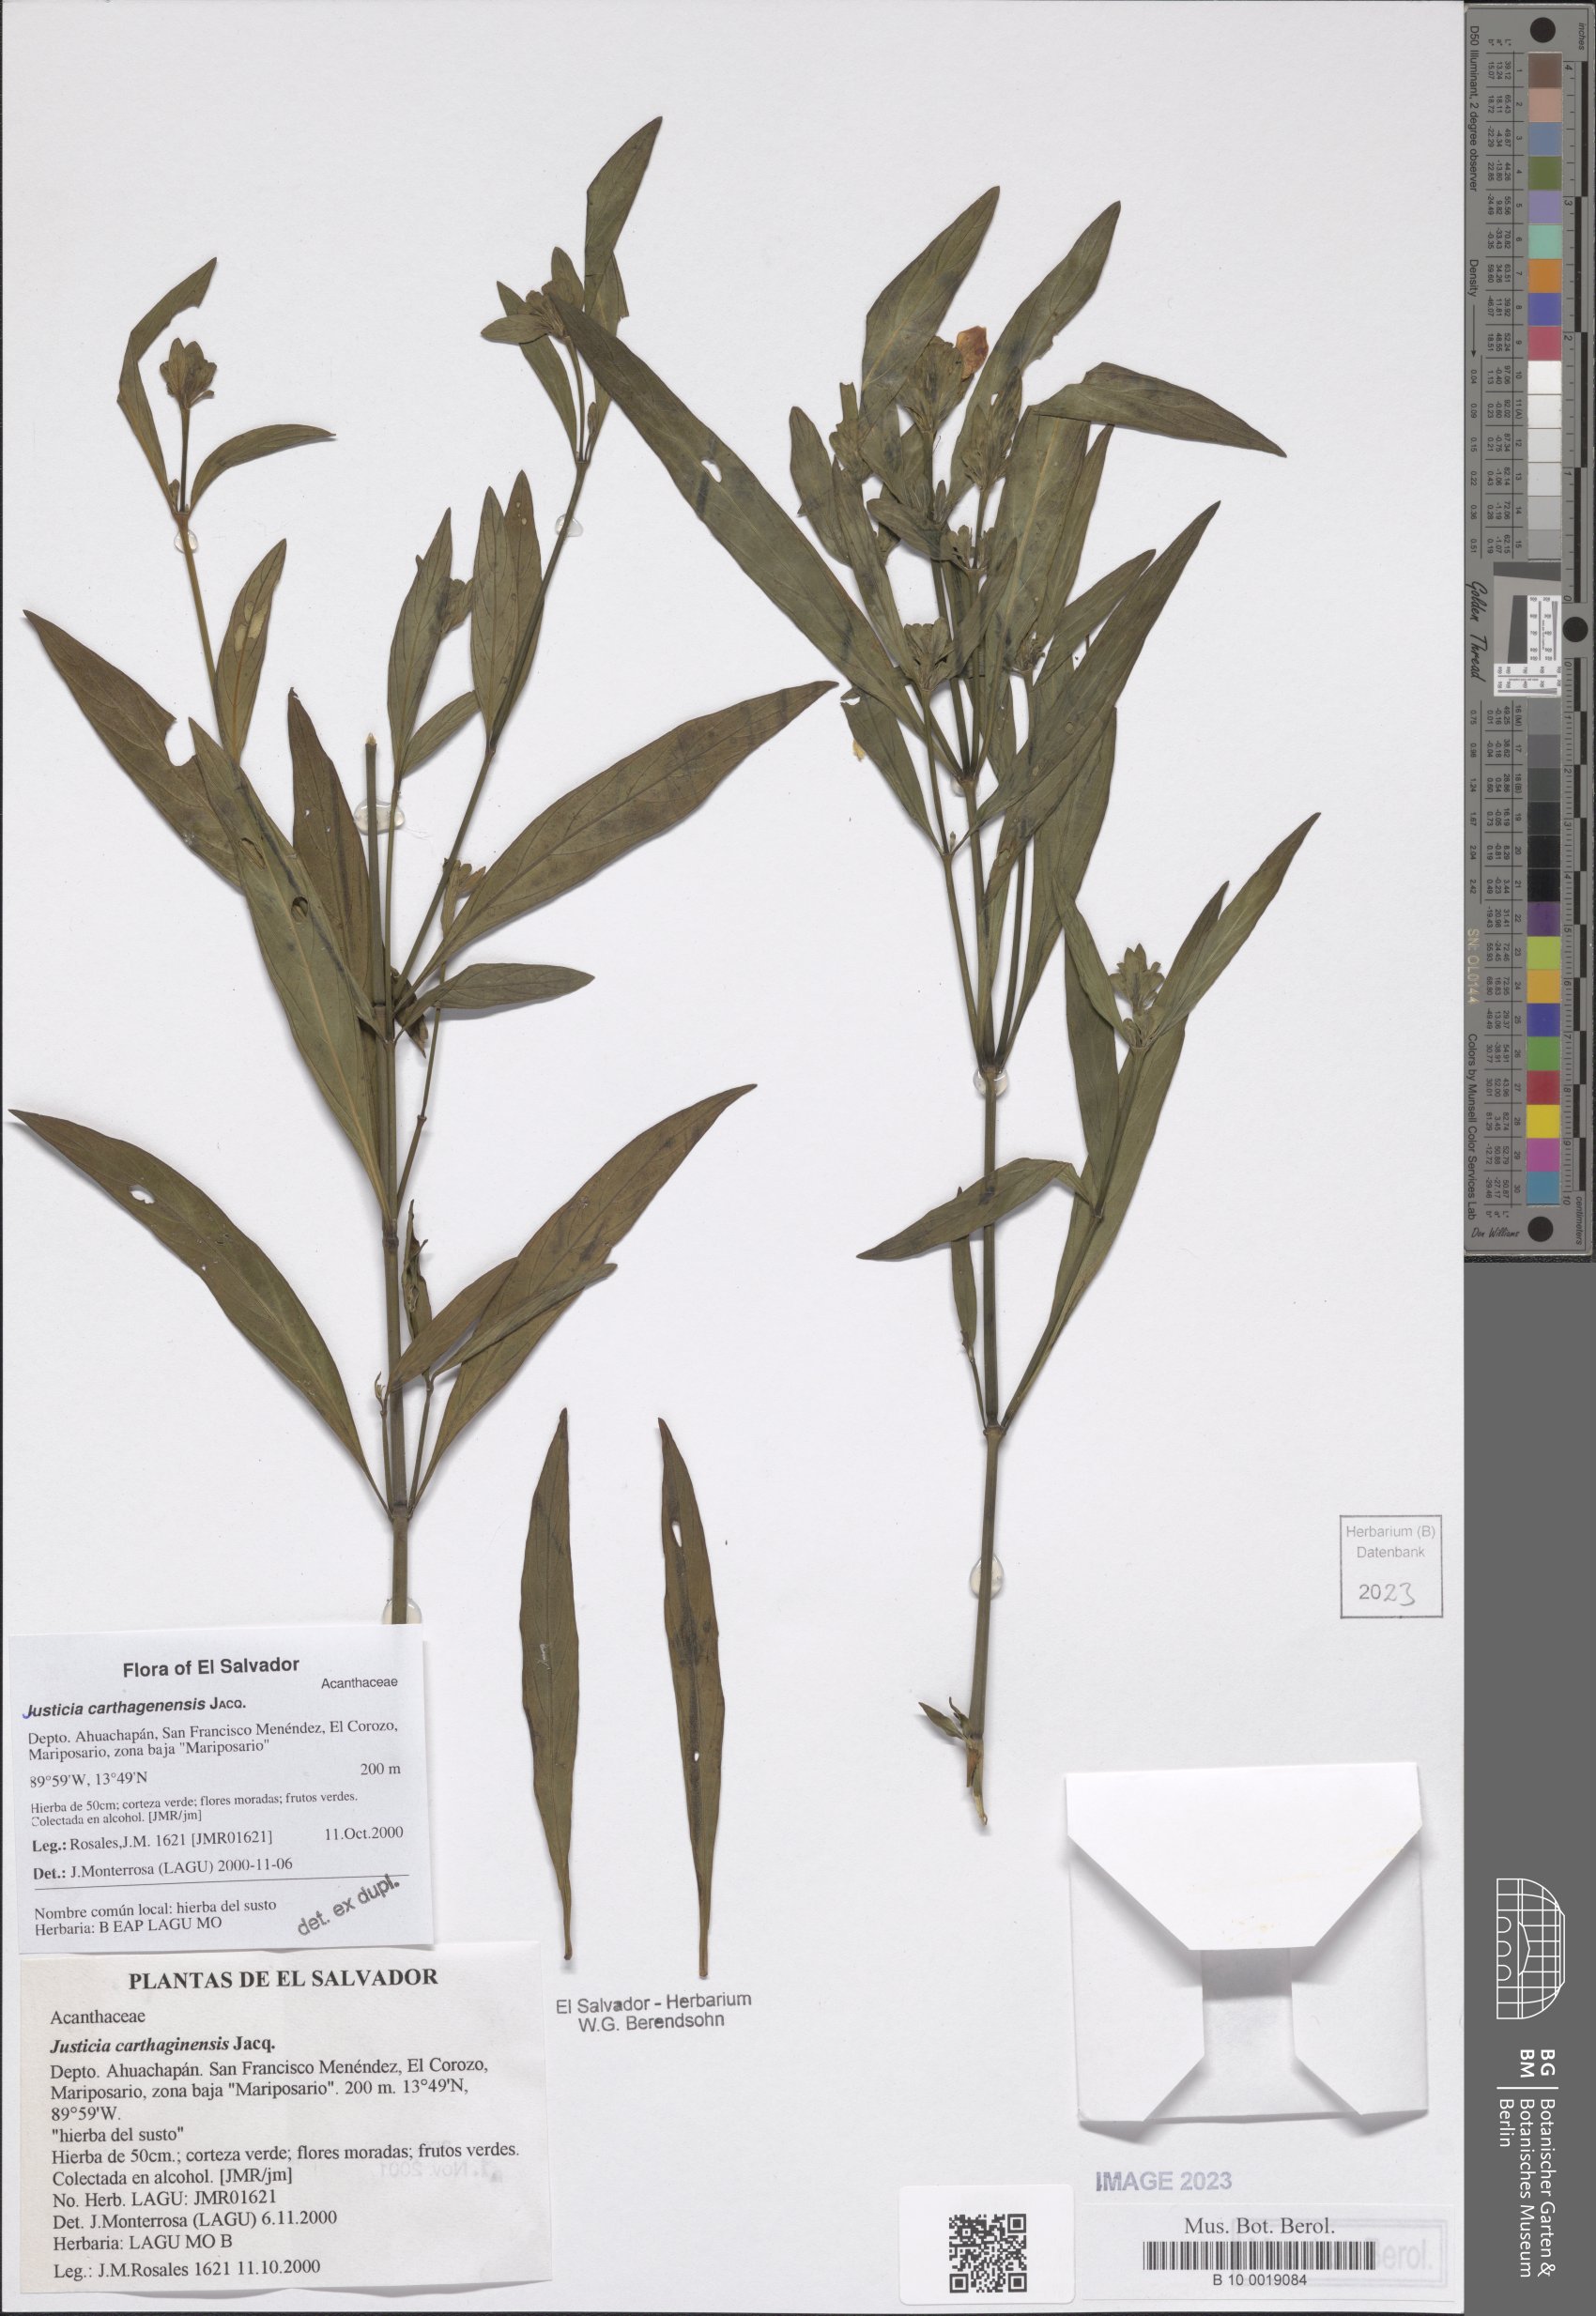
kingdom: Plantae
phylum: Tracheophyta
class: Magnoliopsida
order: Lamiales
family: Acanthaceae
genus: Justicia
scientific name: Justicia carthagenensis
